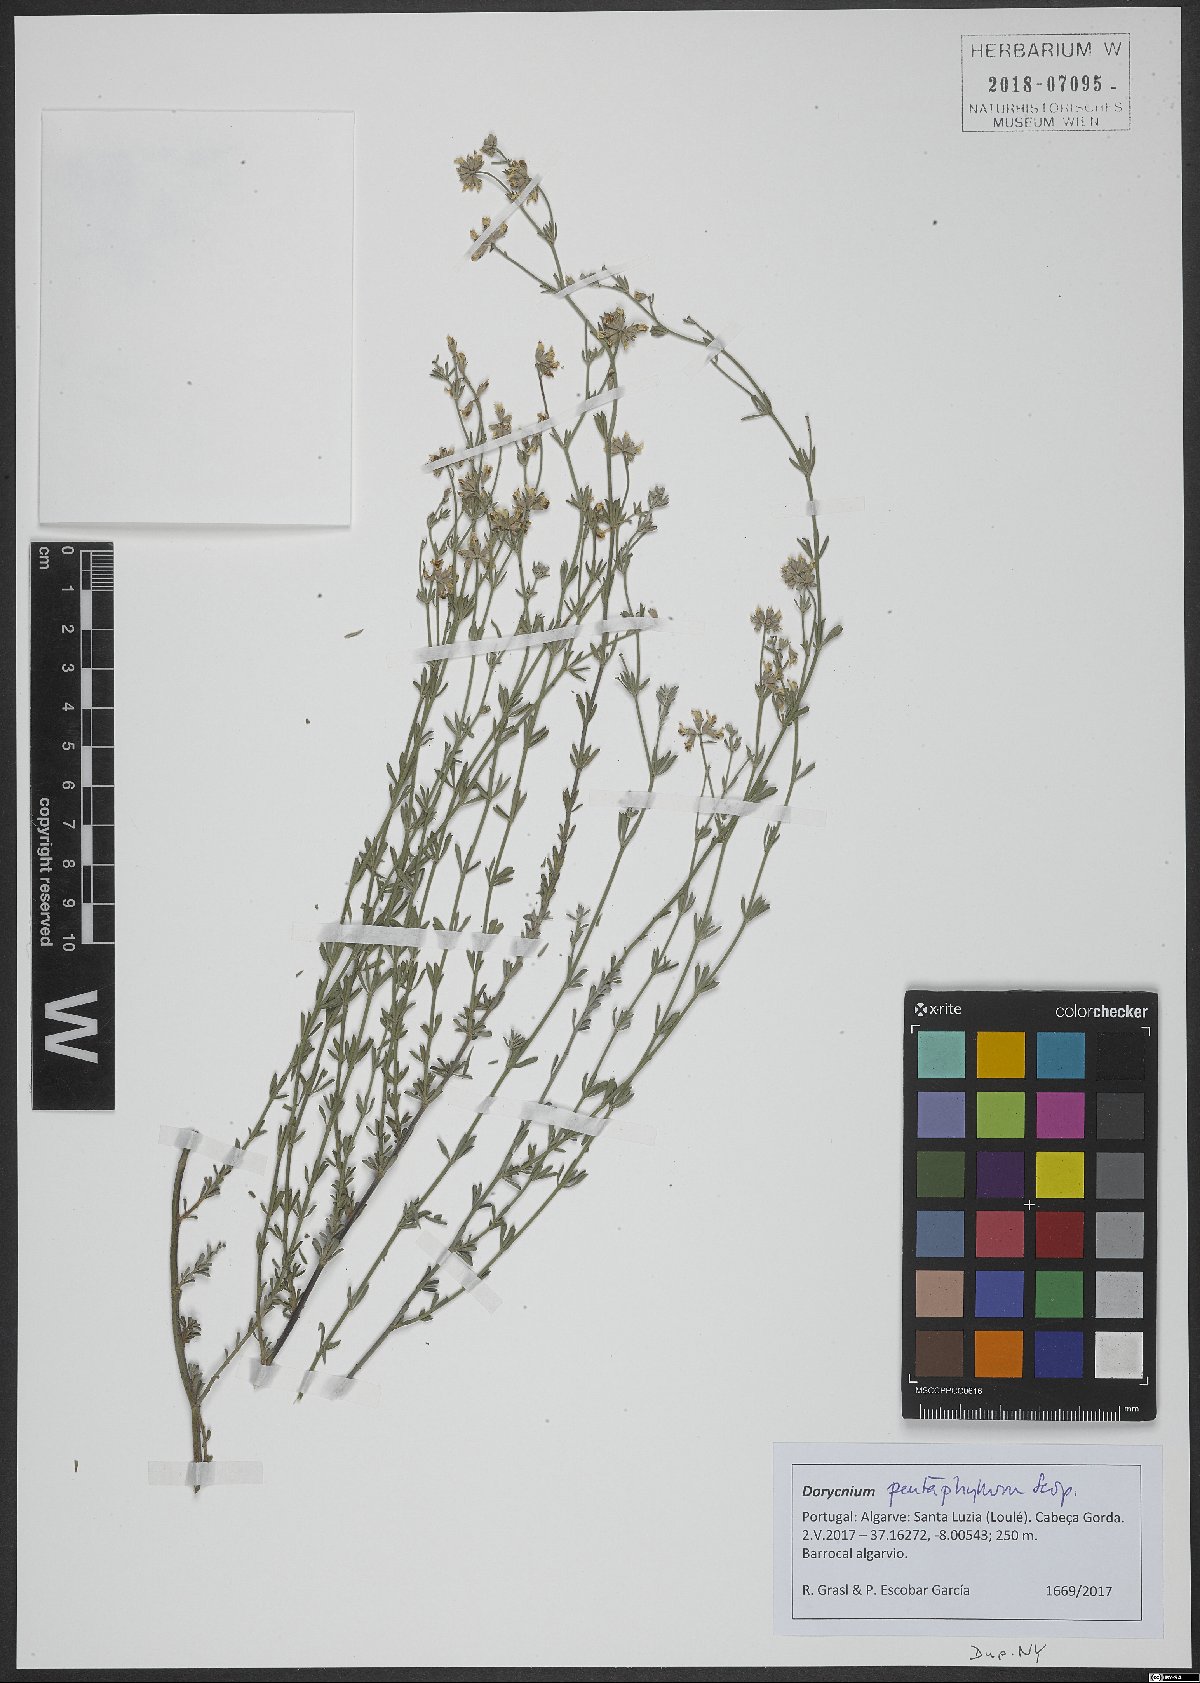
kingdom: Plantae
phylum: Tracheophyta
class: Magnoliopsida
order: Fabales
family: Fabaceae
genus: Lotus
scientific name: Lotus dorycnium
